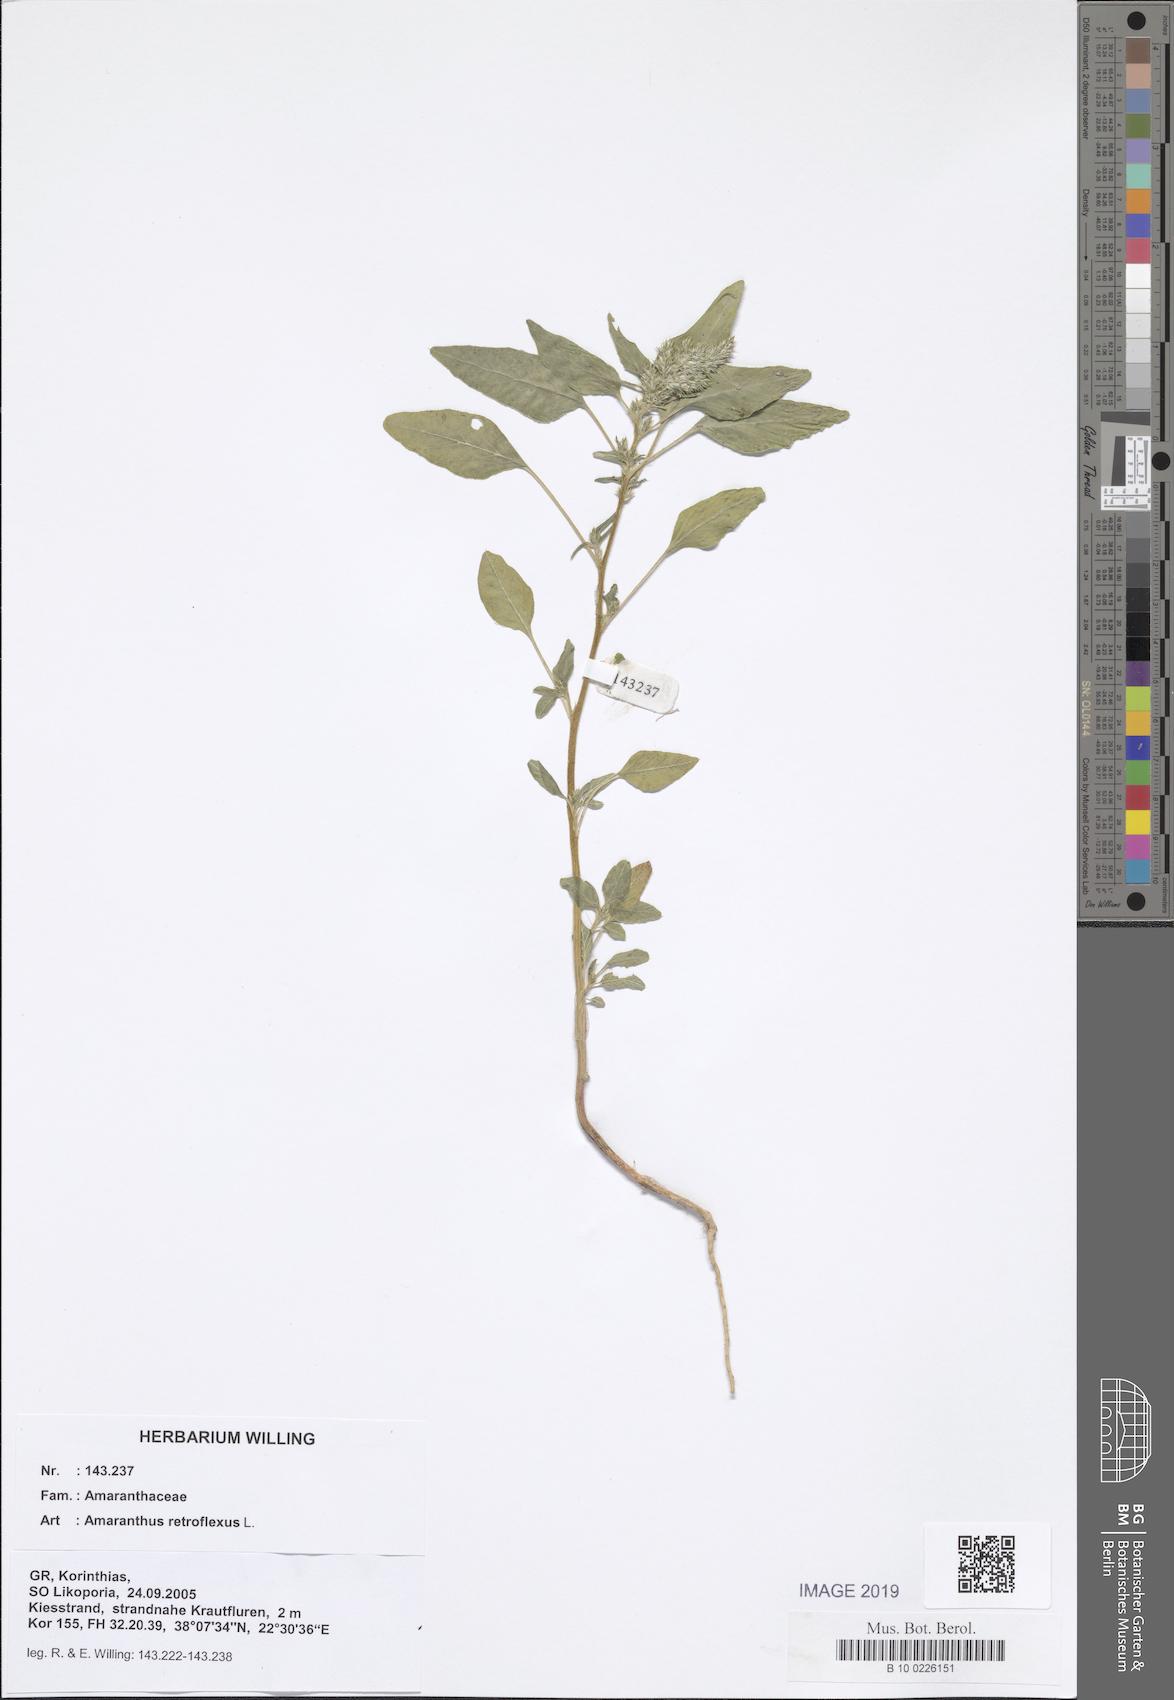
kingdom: Plantae
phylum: Tracheophyta
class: Magnoliopsida
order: Caryophyllales
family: Amaranthaceae
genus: Amaranthus
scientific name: Amaranthus retroflexus
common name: Redroot amaranth
